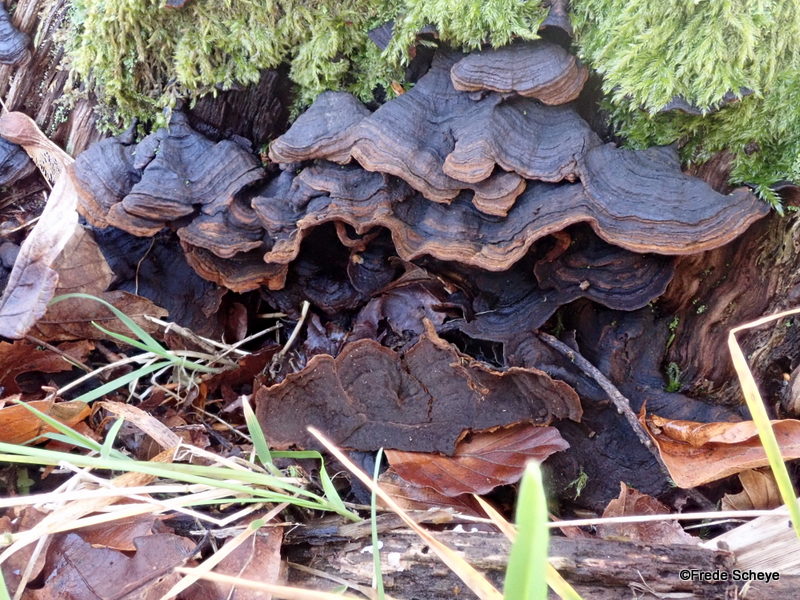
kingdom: Fungi
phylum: Basidiomycota
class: Agaricomycetes
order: Hymenochaetales
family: Hymenochaetaceae
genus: Hymenochaete
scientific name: Hymenochaete rubiginosa
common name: stiv ruslædersvamp
